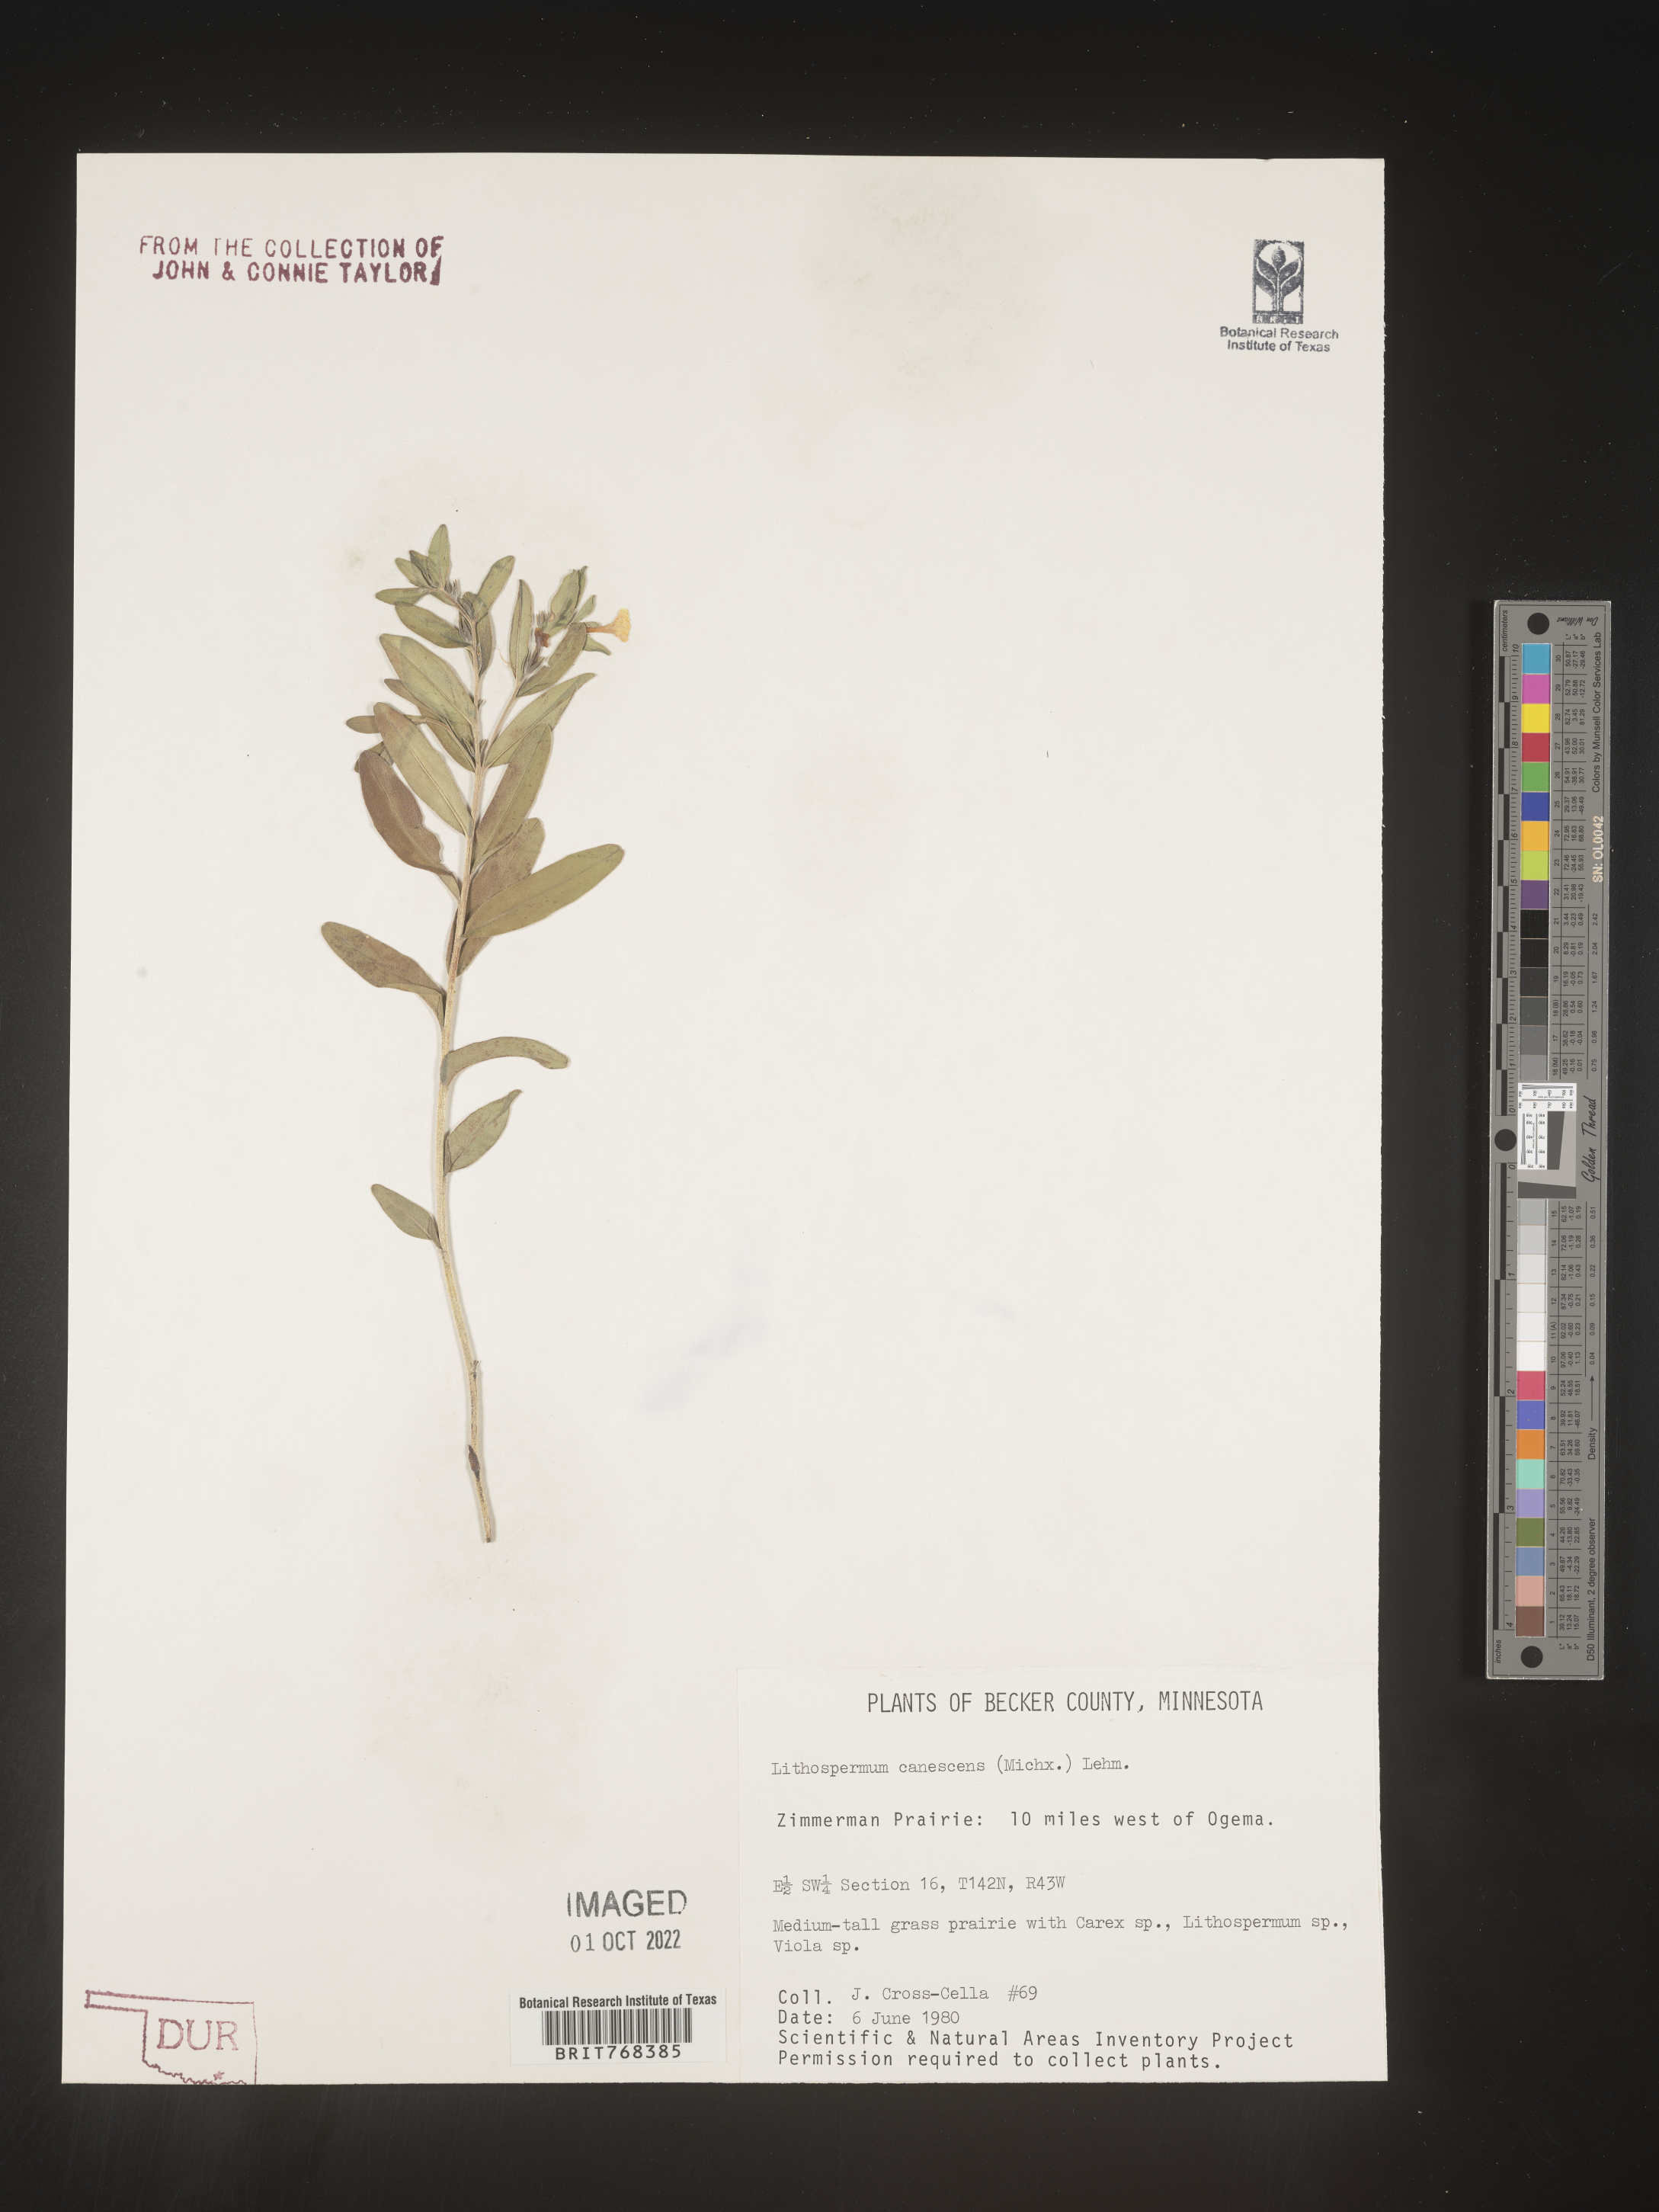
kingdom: Plantae
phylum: Tracheophyta
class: Magnoliopsida
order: Boraginales
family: Boraginaceae
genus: Lithospermum
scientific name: Lithospermum canescens
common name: Hoary puccoon
